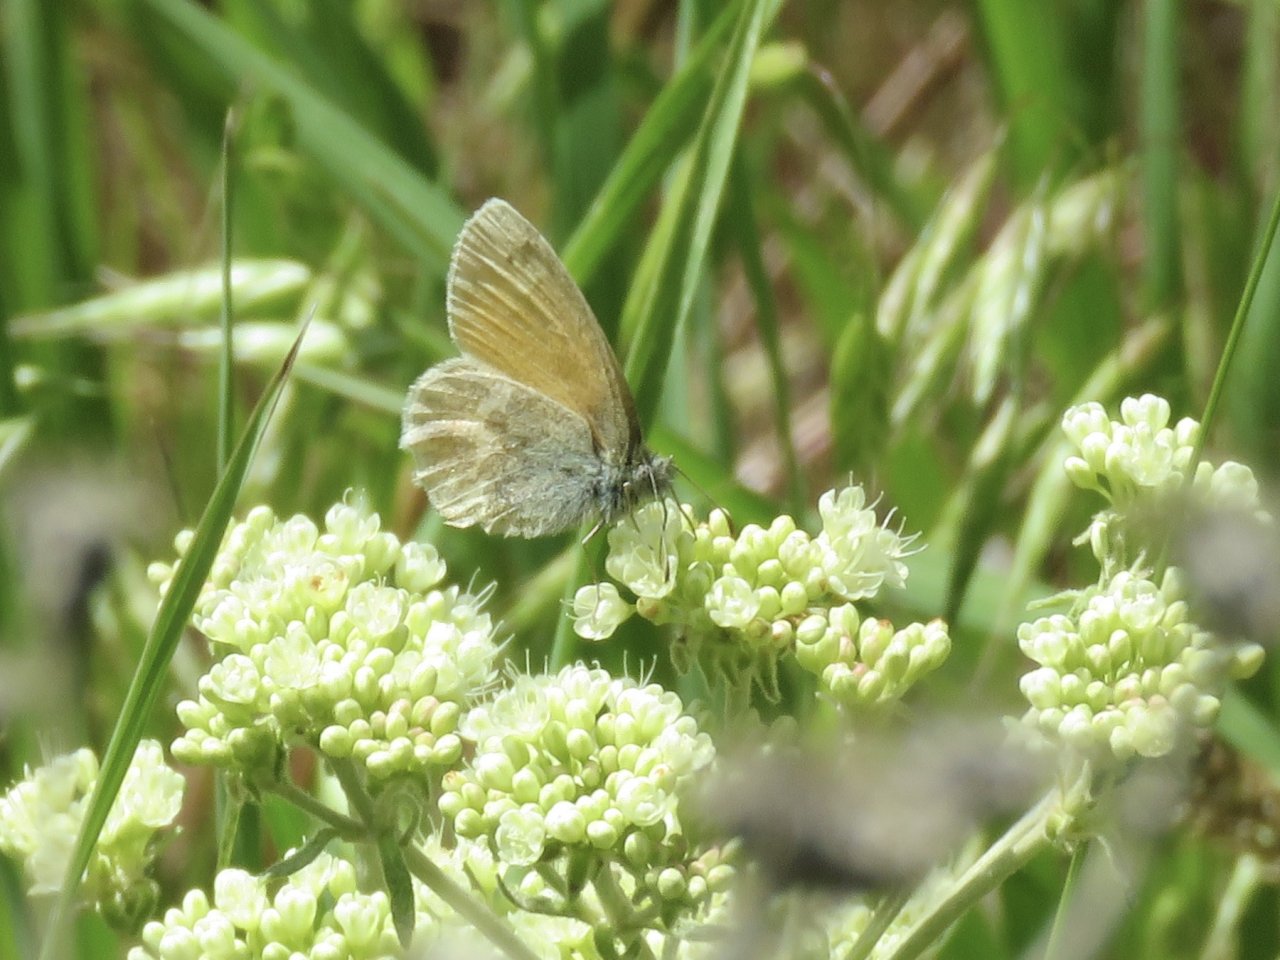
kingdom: Animalia
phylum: Arthropoda
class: Insecta
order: Lepidoptera
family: Nymphalidae
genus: Coenonympha
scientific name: Coenonympha tullia
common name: Large Heath
